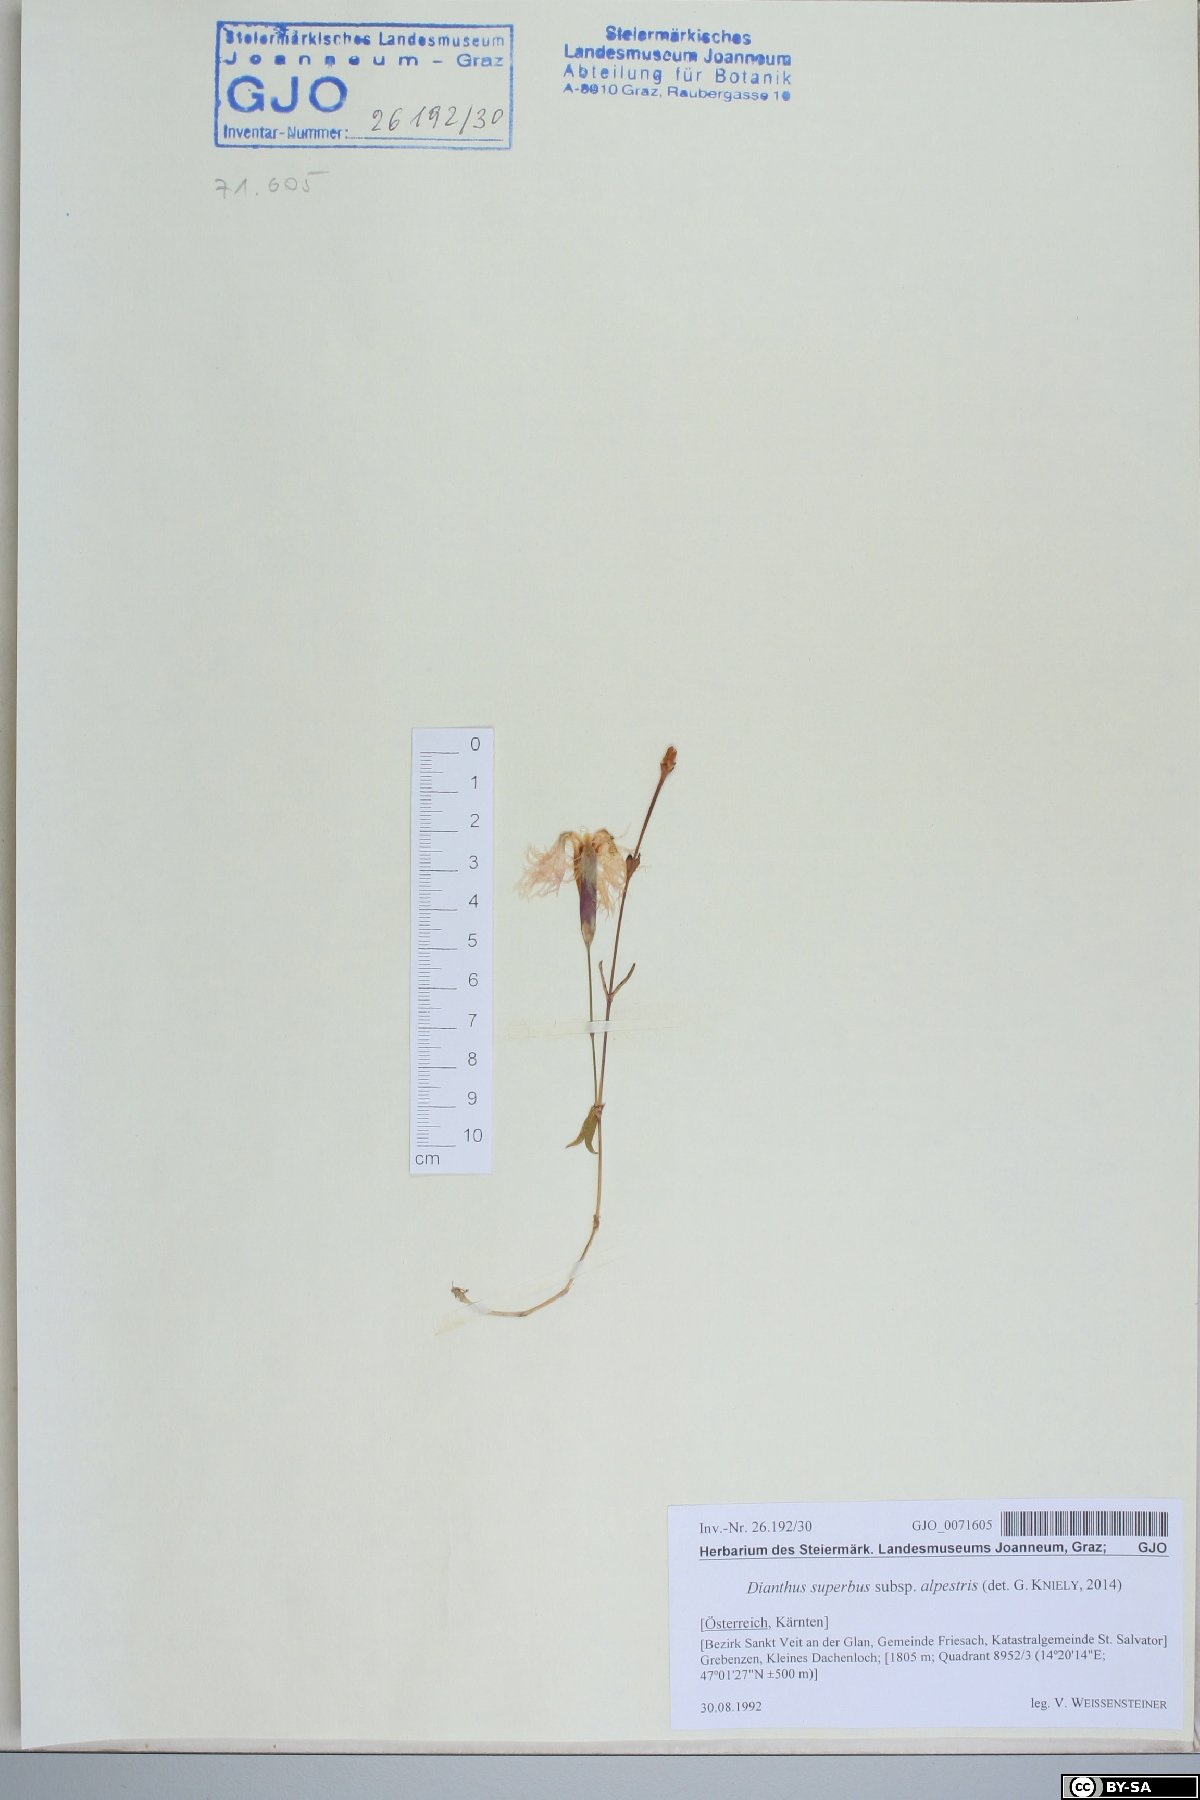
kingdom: Plantae
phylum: Tracheophyta
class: Magnoliopsida
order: Caryophyllales
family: Caryophyllaceae
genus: Dianthus
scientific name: Dianthus superbus
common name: Fringed pink
